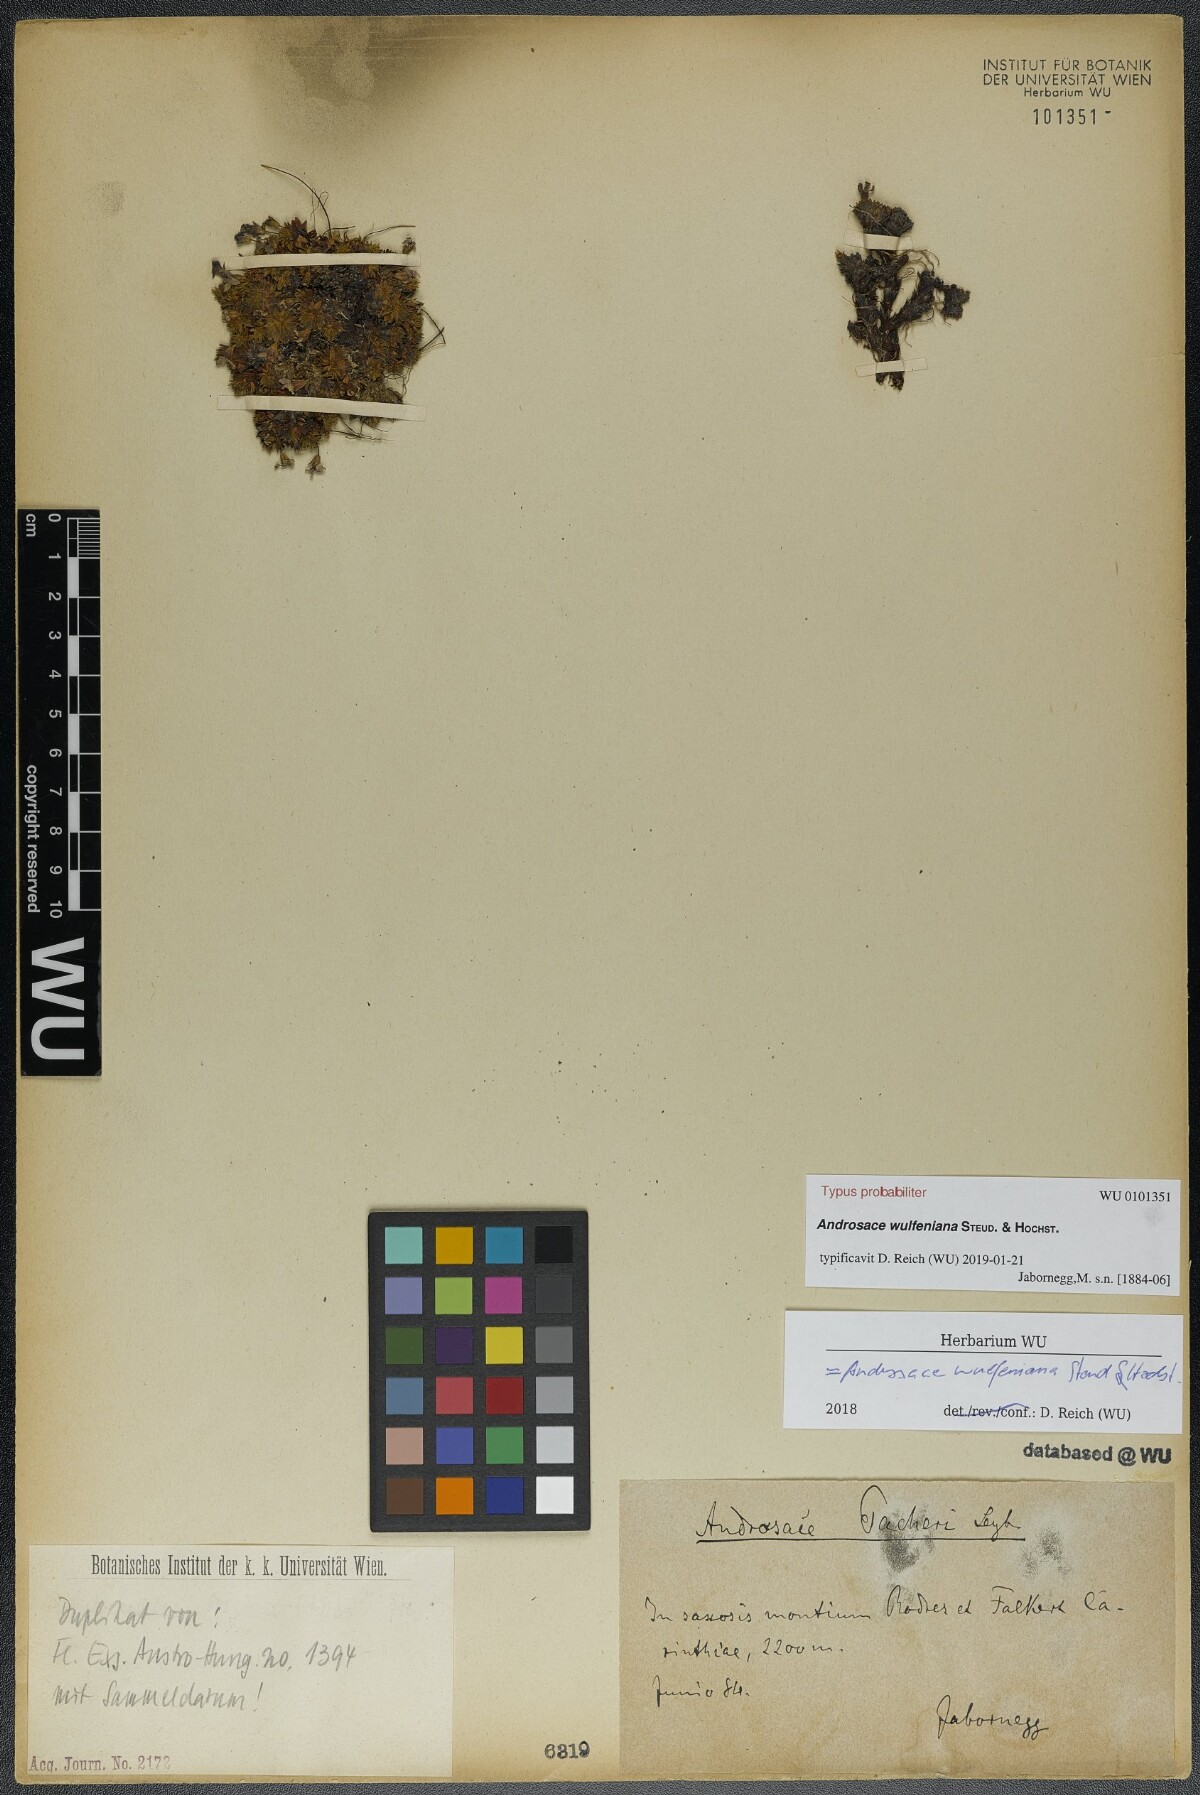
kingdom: Plantae
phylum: Tracheophyta
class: Magnoliopsida
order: Ericales
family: Primulaceae
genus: Androsace
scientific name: Androsace wulfeniana
